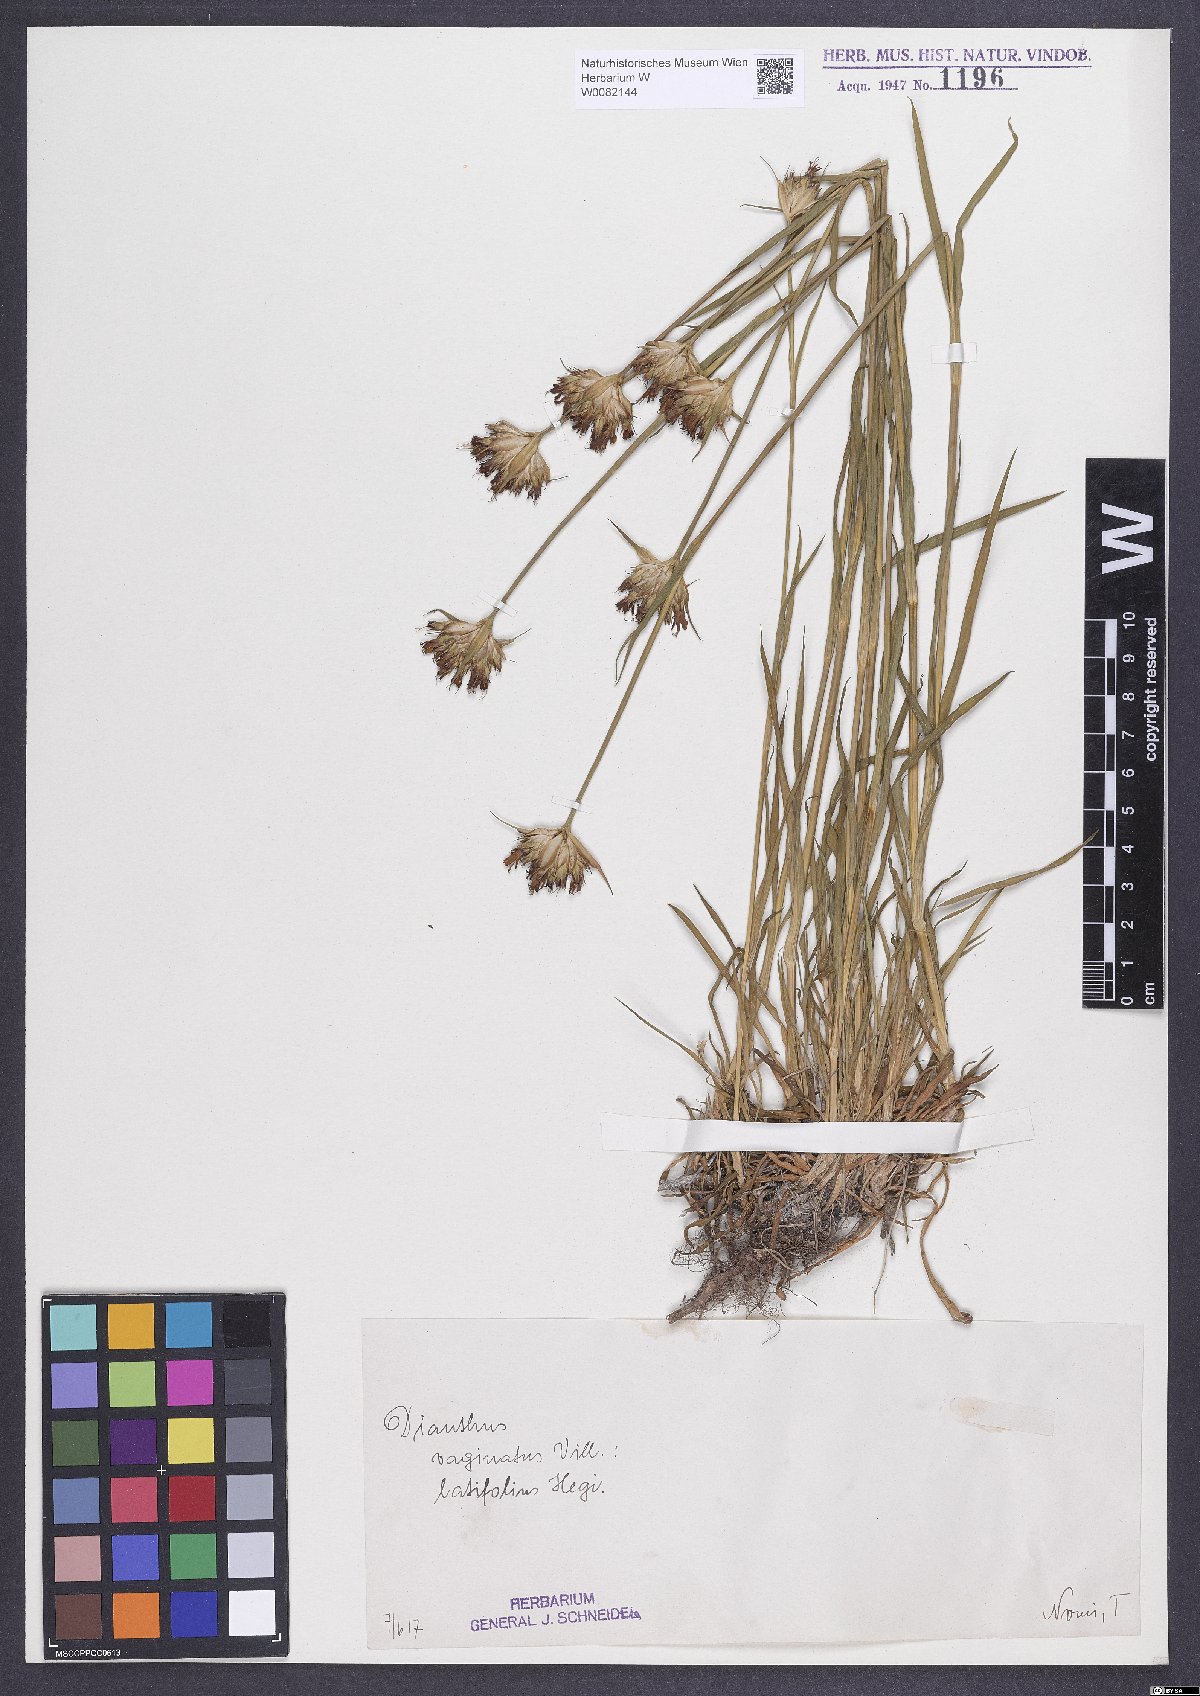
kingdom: Plantae
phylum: Tracheophyta
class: Magnoliopsida
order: Caryophyllales
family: Caryophyllaceae
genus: Dianthus
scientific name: Dianthus carthusianorum
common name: Carthusian pink
